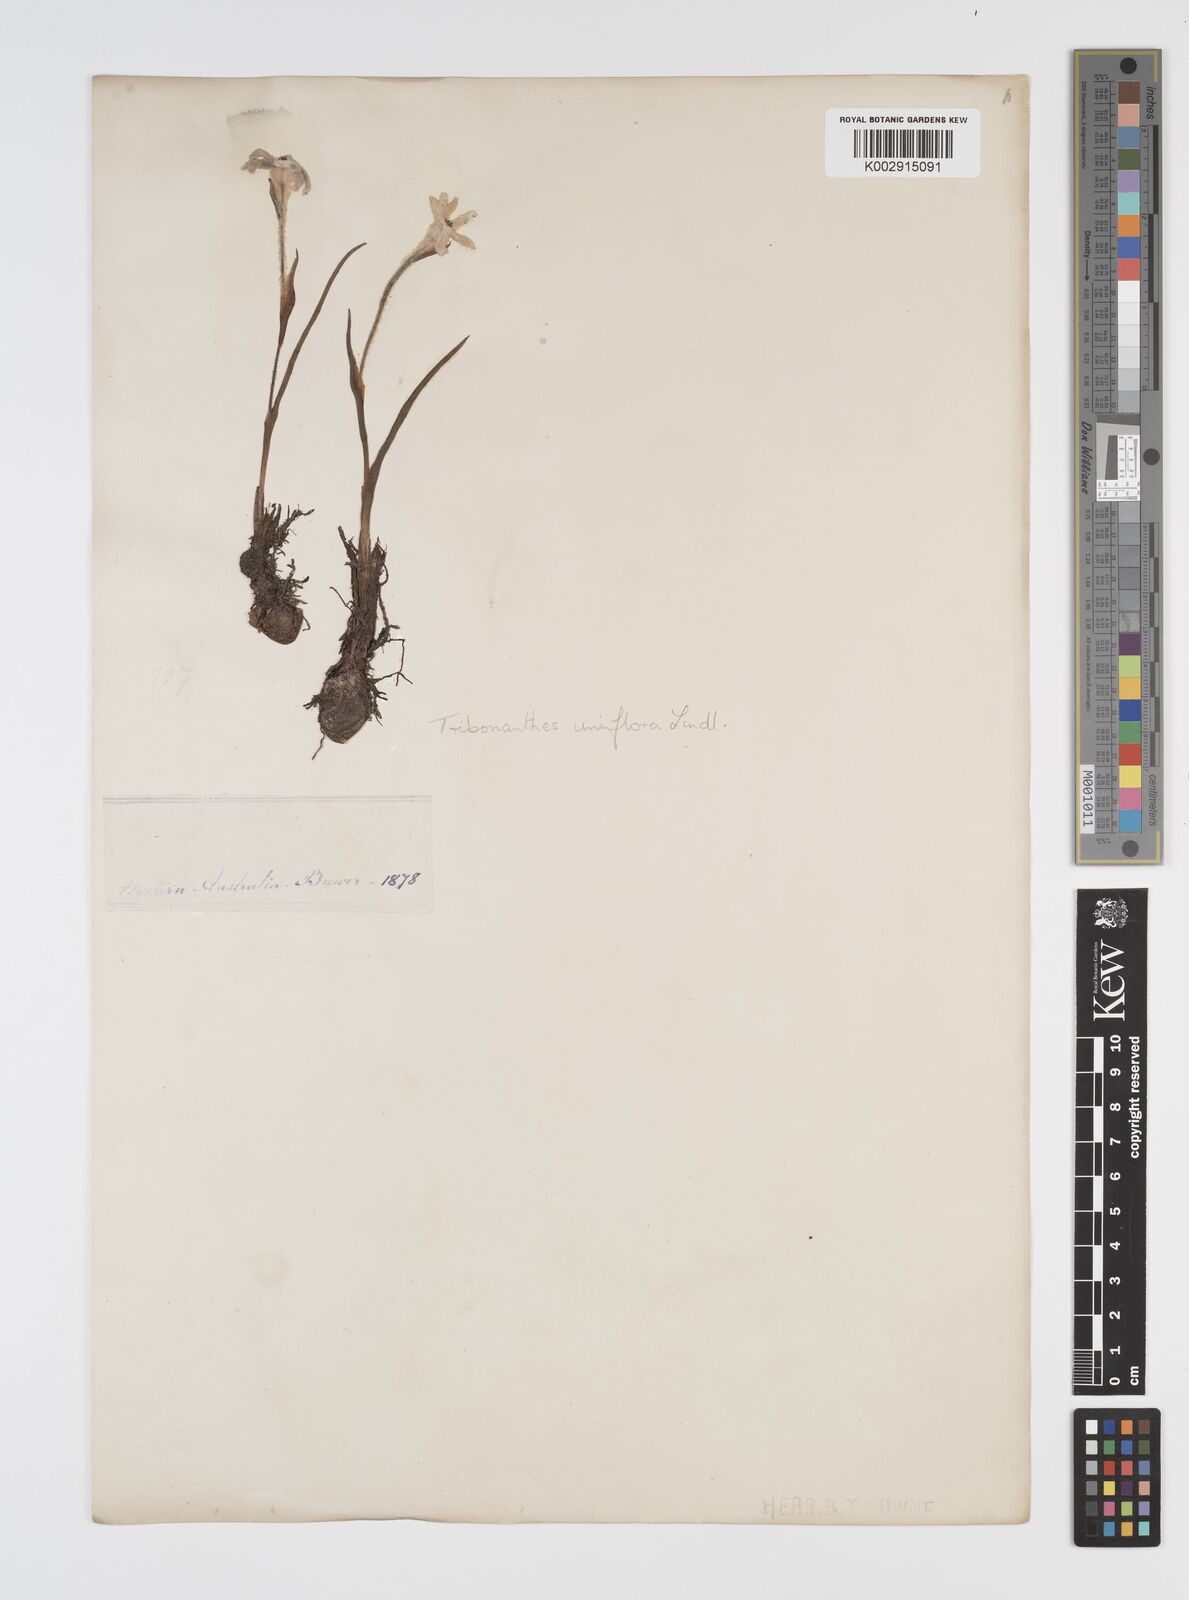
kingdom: Plantae
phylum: Tracheophyta
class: Liliopsida
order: Commelinales
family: Haemodoraceae
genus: Tribonanthes
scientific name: Tribonanthes uniflora
